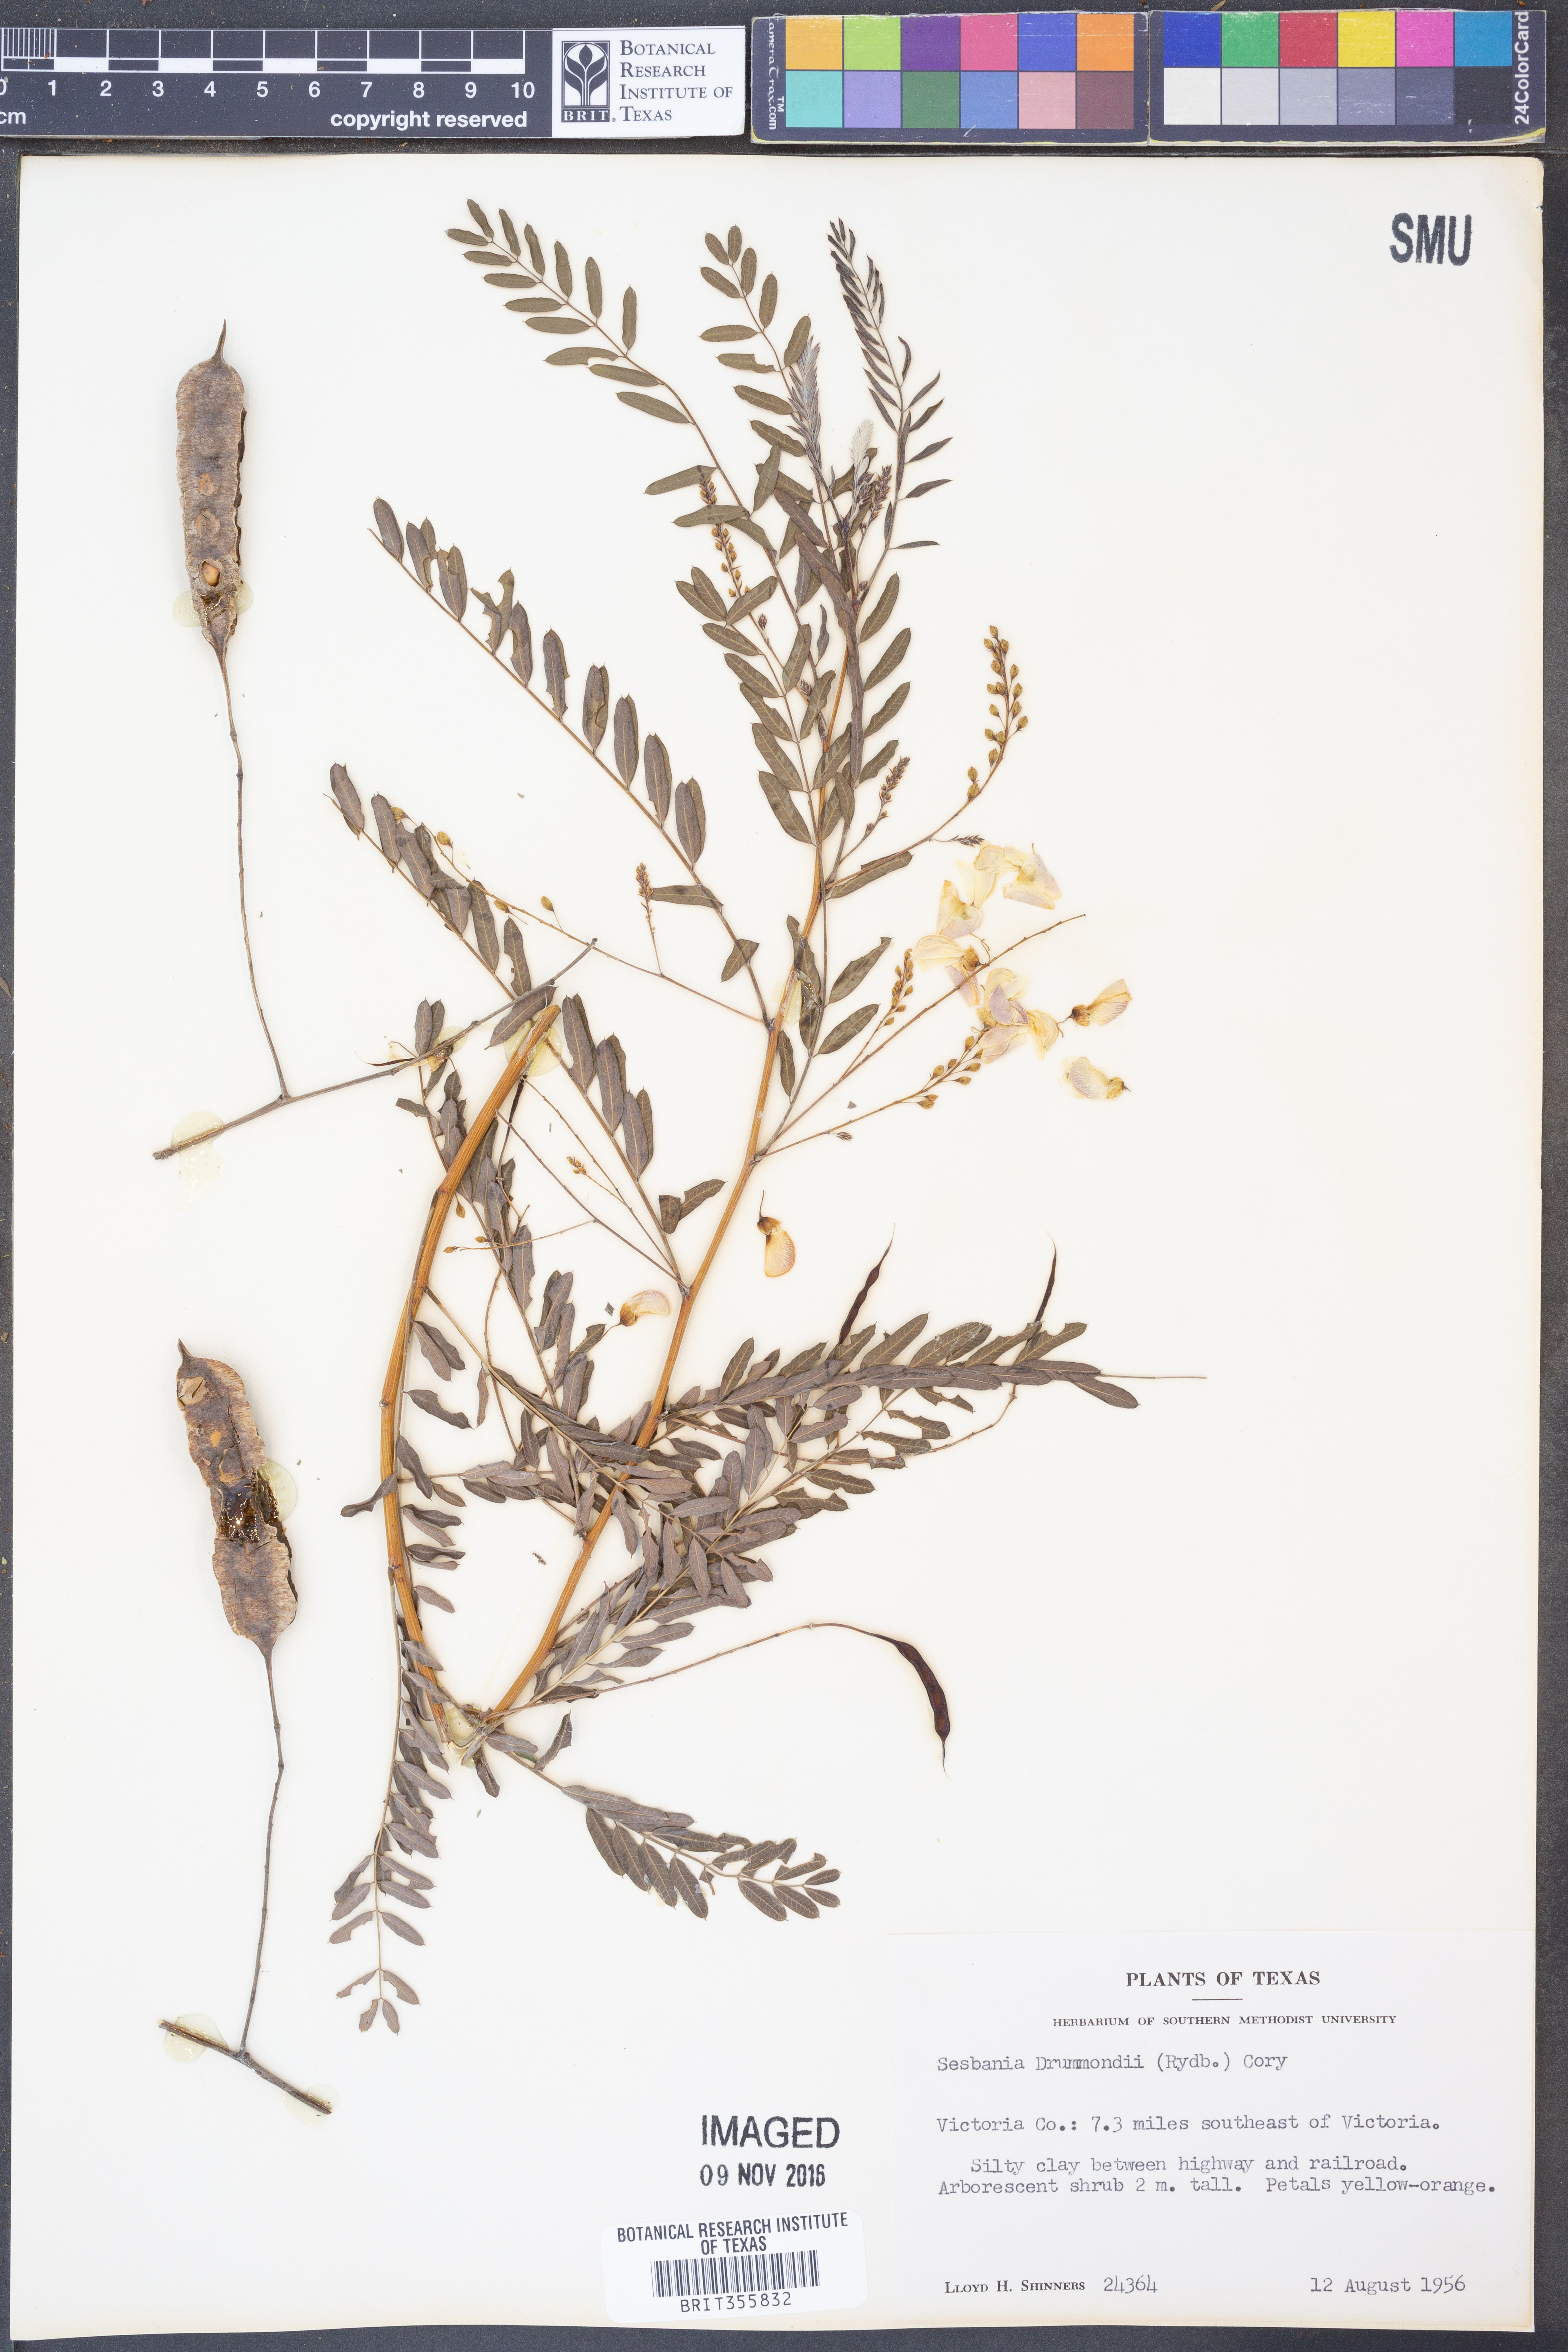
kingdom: Plantae
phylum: Tracheophyta
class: Magnoliopsida
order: Fabales
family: Fabaceae
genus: Sesbania
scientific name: Sesbania drummondii
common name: Poison-bean
